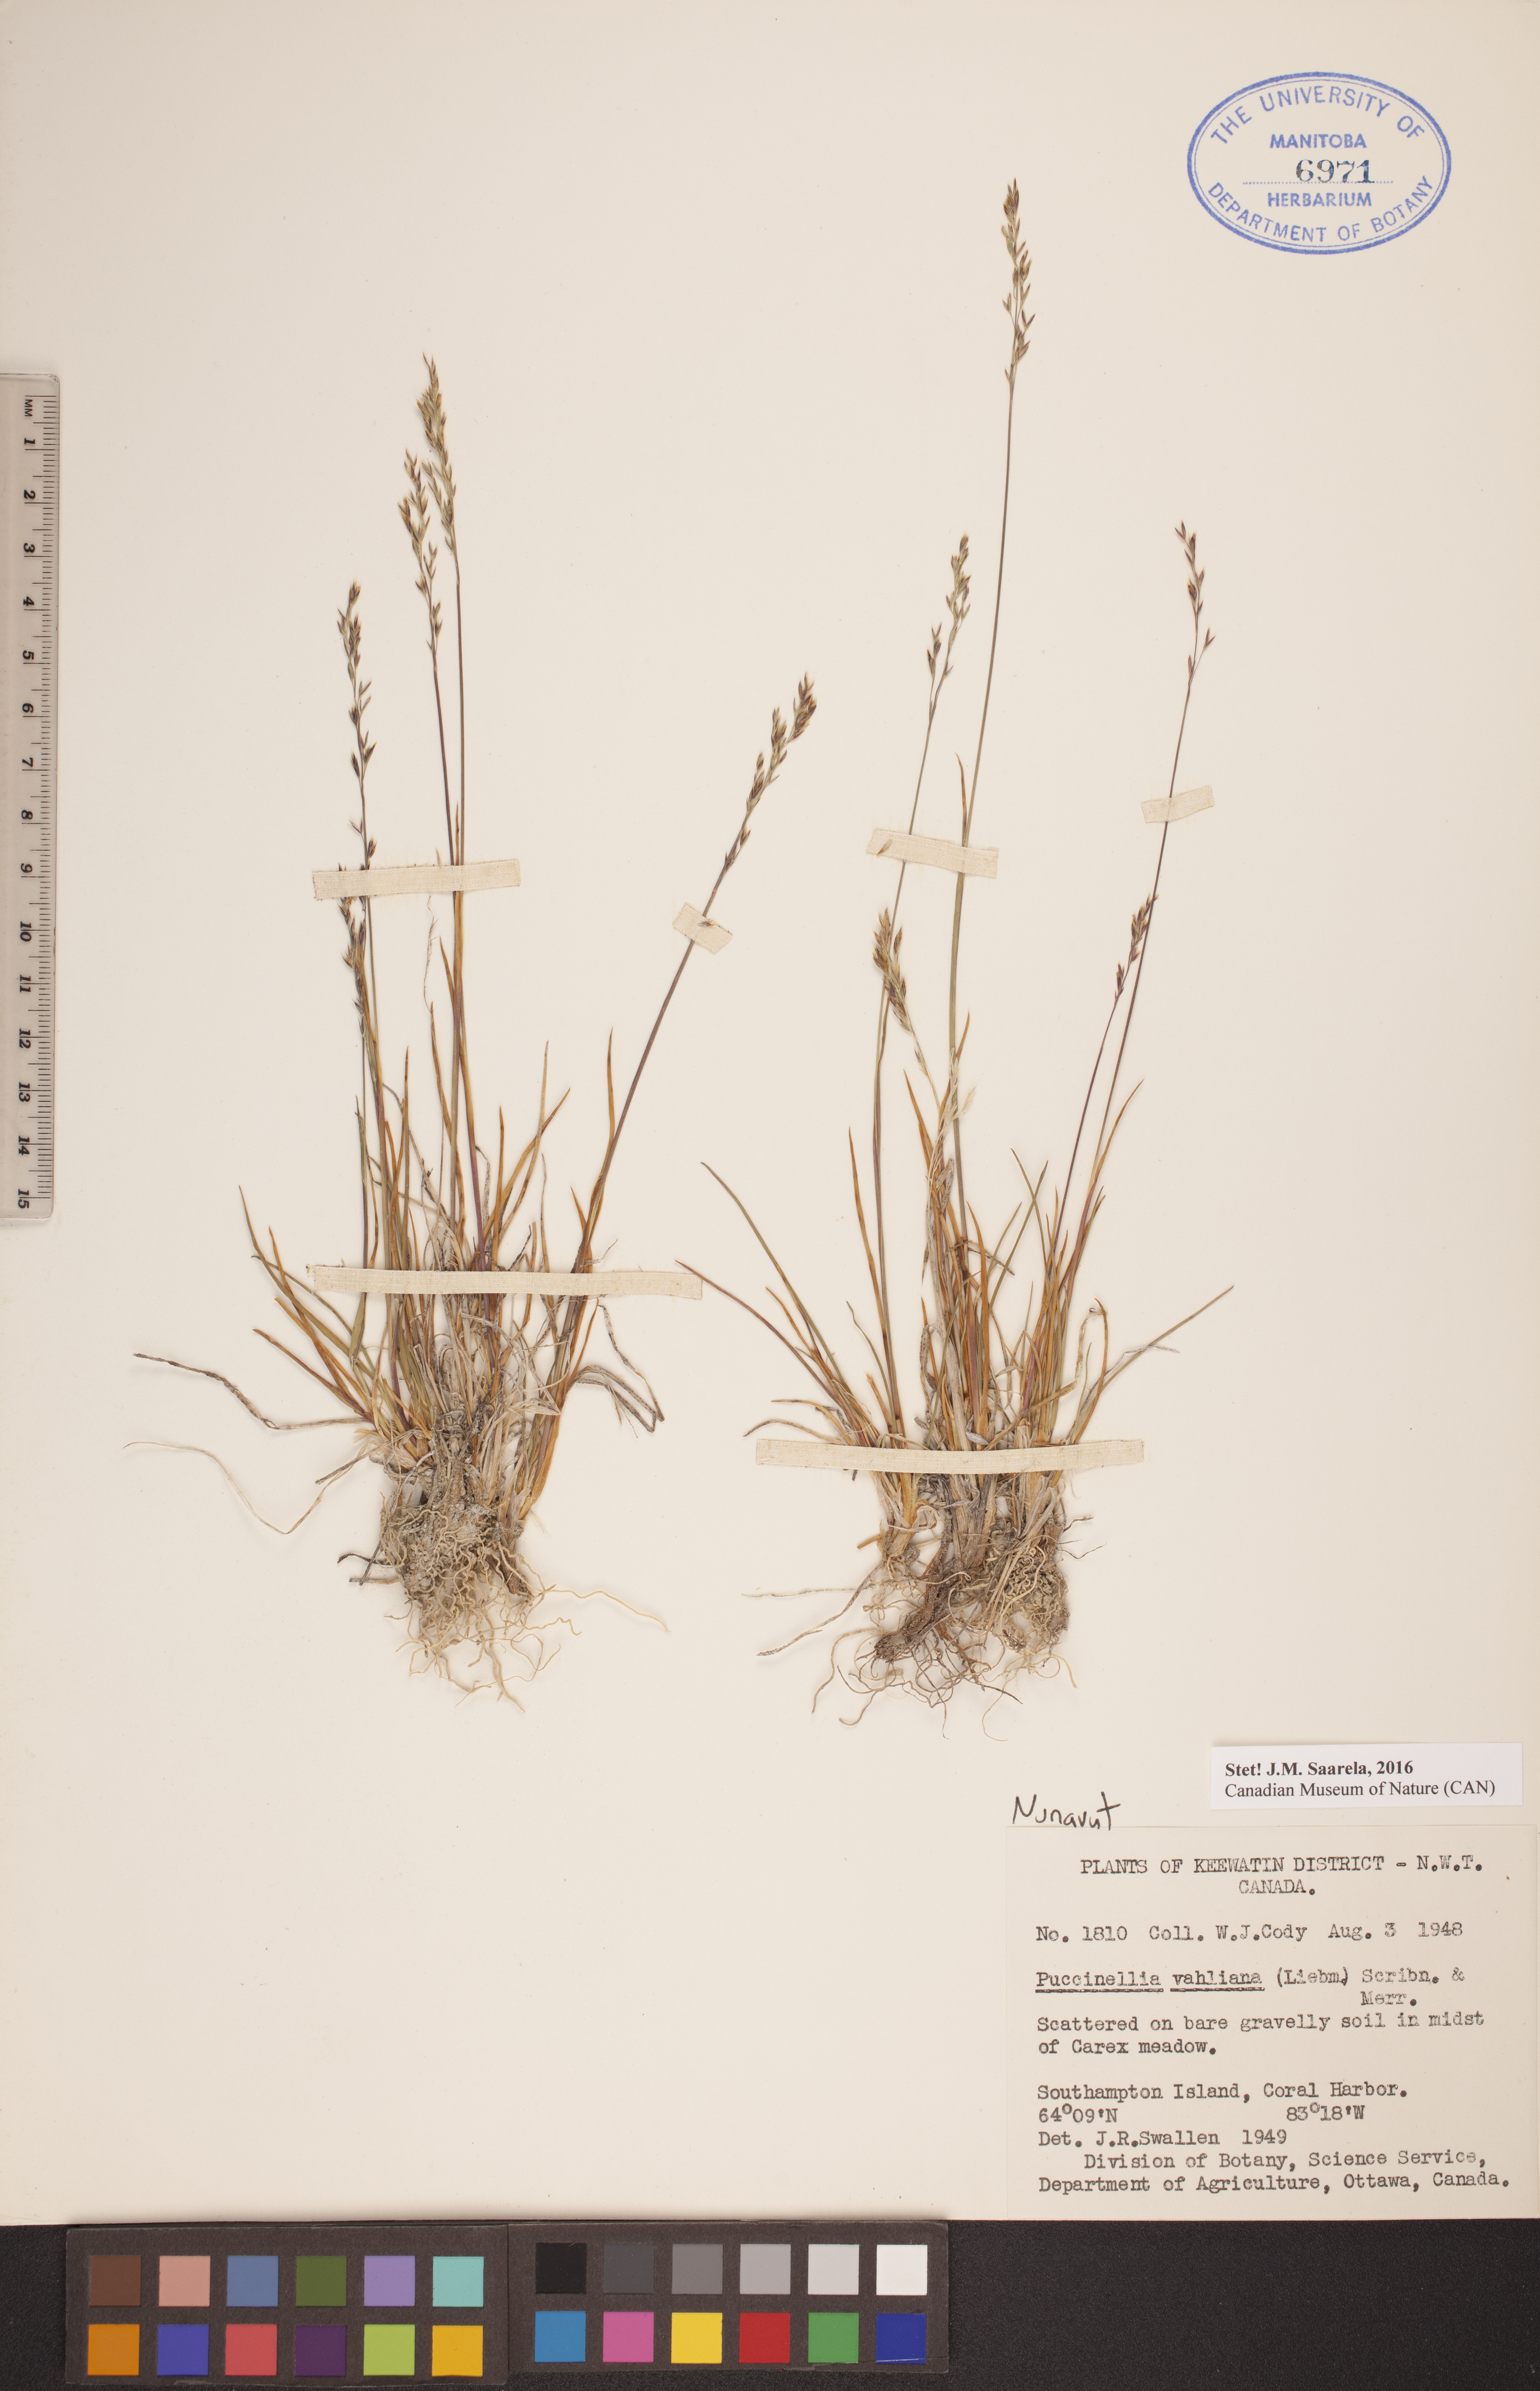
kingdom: Plantae
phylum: Tracheophyta
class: Liliopsida
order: Poales
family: Poaceae
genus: Puccinellia
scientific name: Puccinellia vahliana
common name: Vahl's alkaligrass
